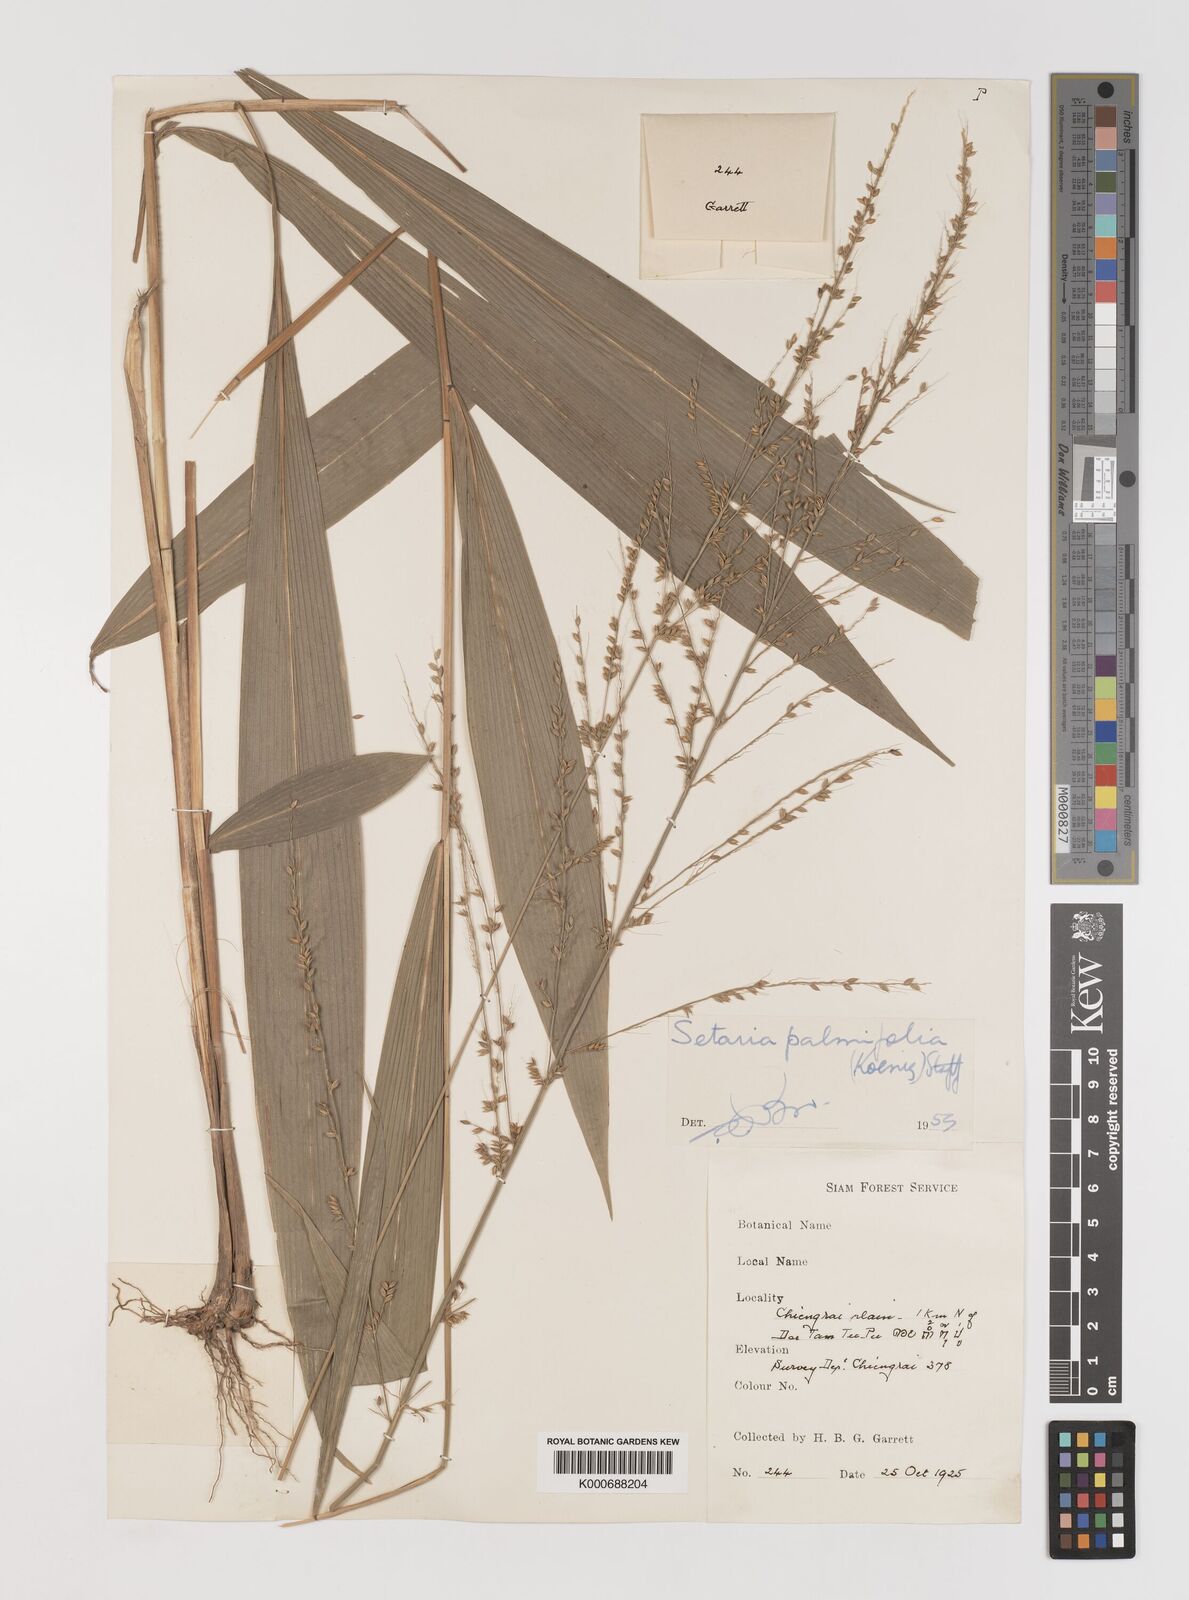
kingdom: Plantae
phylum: Tracheophyta
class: Liliopsida
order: Poales
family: Poaceae
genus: Setaria
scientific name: Setaria palmifolia
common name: Broadleaved bristlegrass
